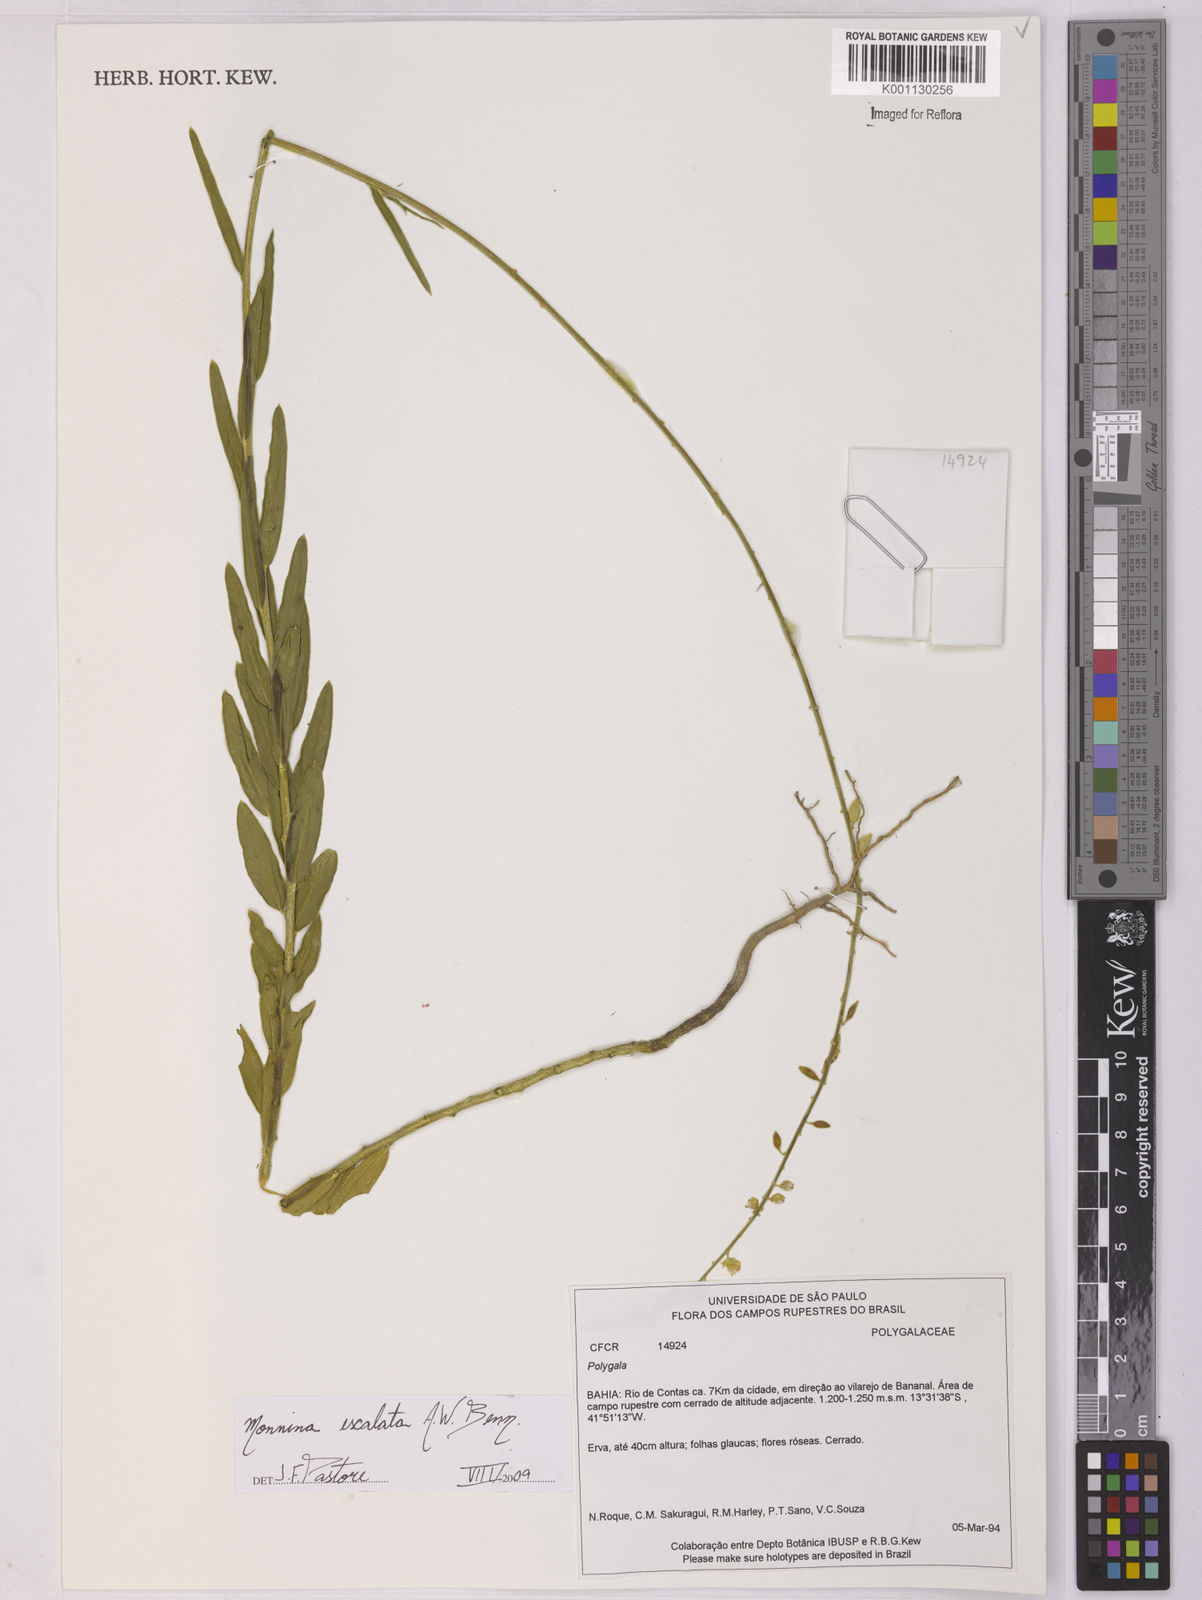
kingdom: Plantae
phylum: Tracheophyta
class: Magnoliopsida
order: Fabales
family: Polygalaceae
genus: Monnina
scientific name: Monnina exalata
